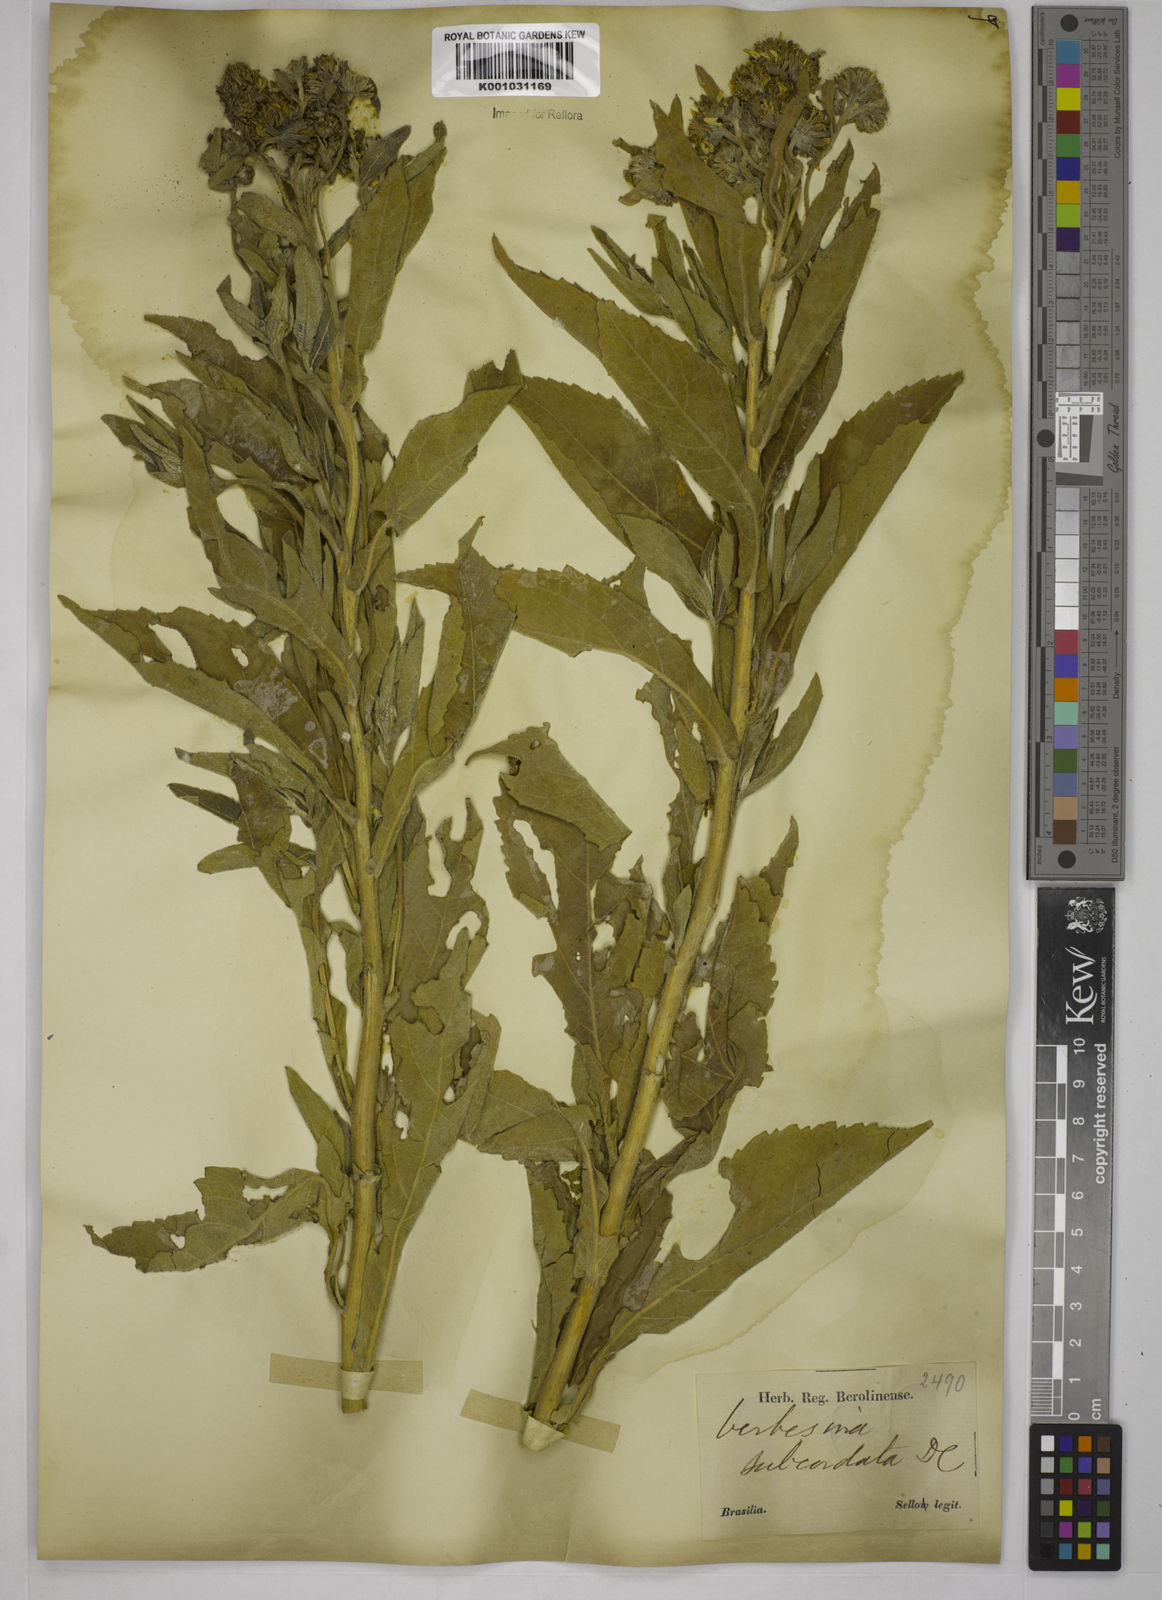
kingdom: Plantae
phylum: Tracheophyta
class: Magnoliopsida
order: Asterales
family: Asteraceae
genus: Verbesina
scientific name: Verbesina subcordata
